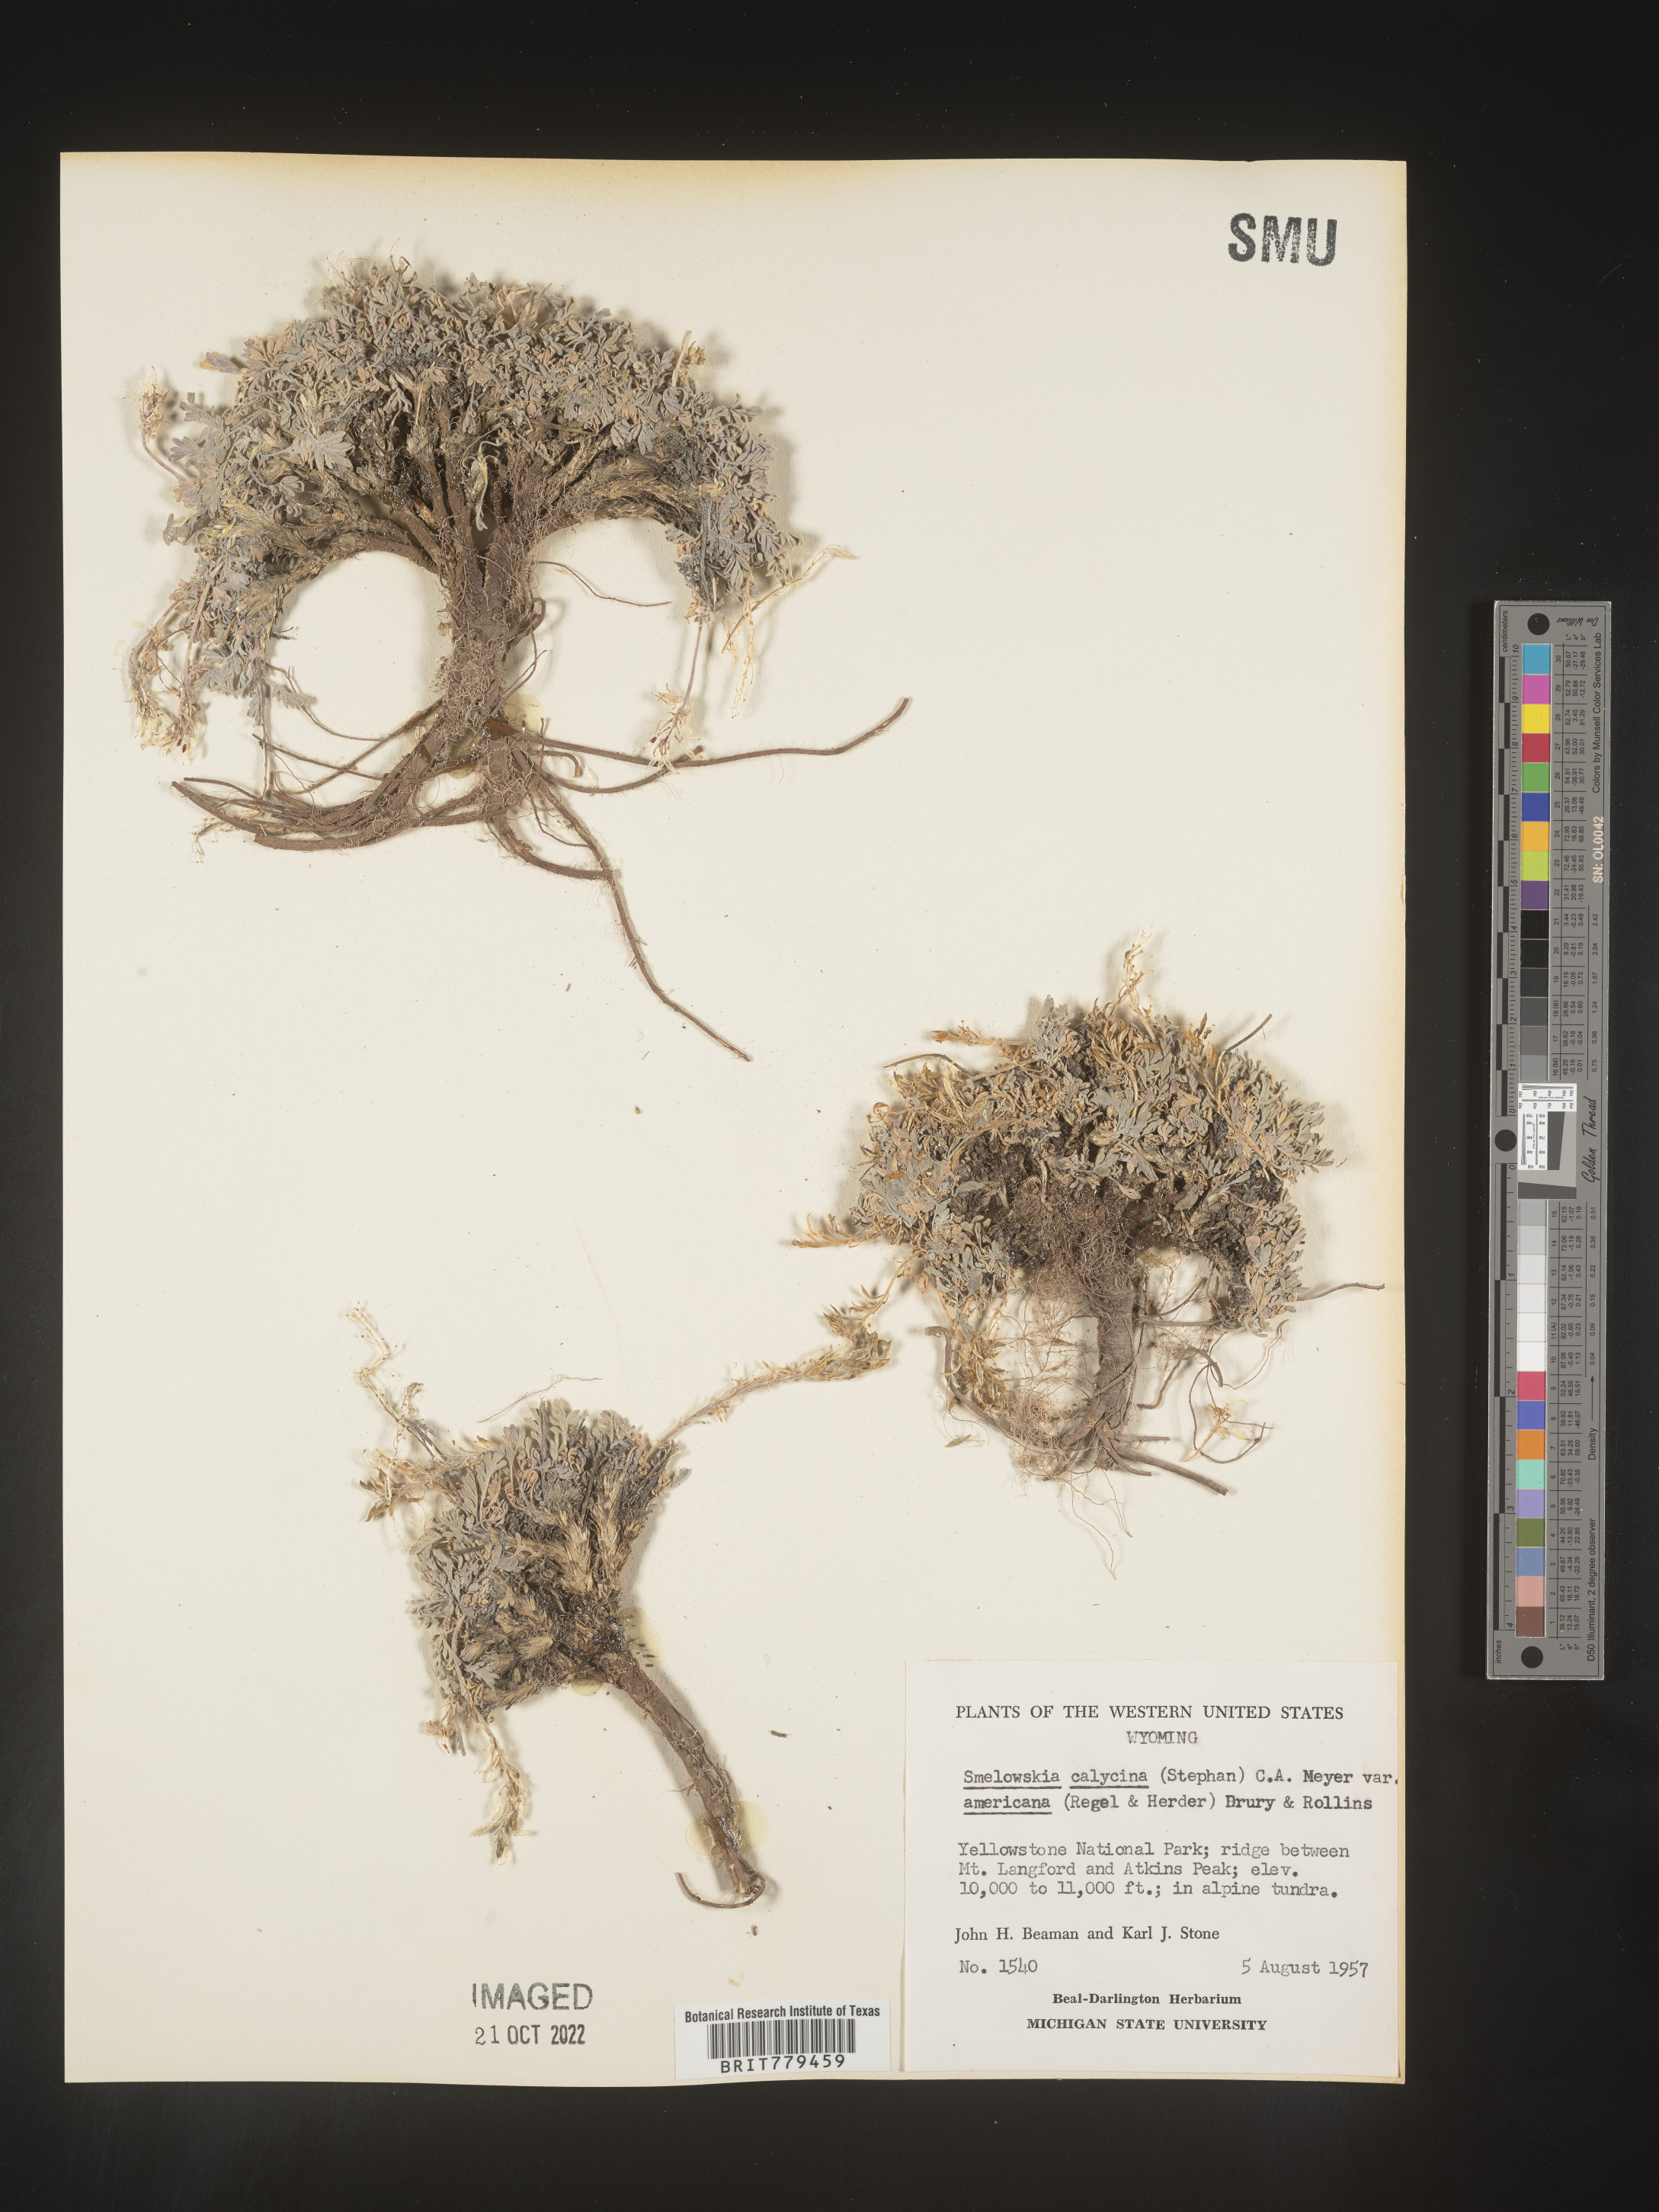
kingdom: Plantae
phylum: Tracheophyta
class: Magnoliopsida
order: Brassicales
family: Brassicaceae
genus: Smelowskia
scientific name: Smelowskia
